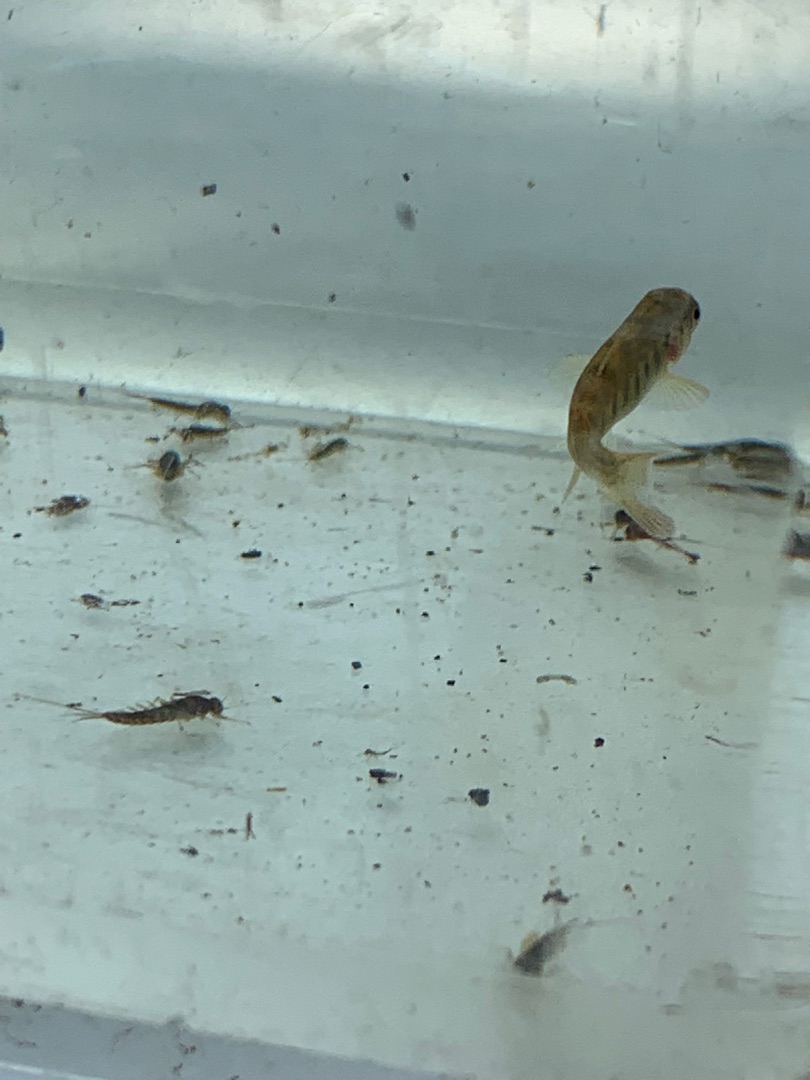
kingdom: Animalia
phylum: Chordata
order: Salmoniformes
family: Salmonidae
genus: Salmo
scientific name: Salmo trutta
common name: Ørred
